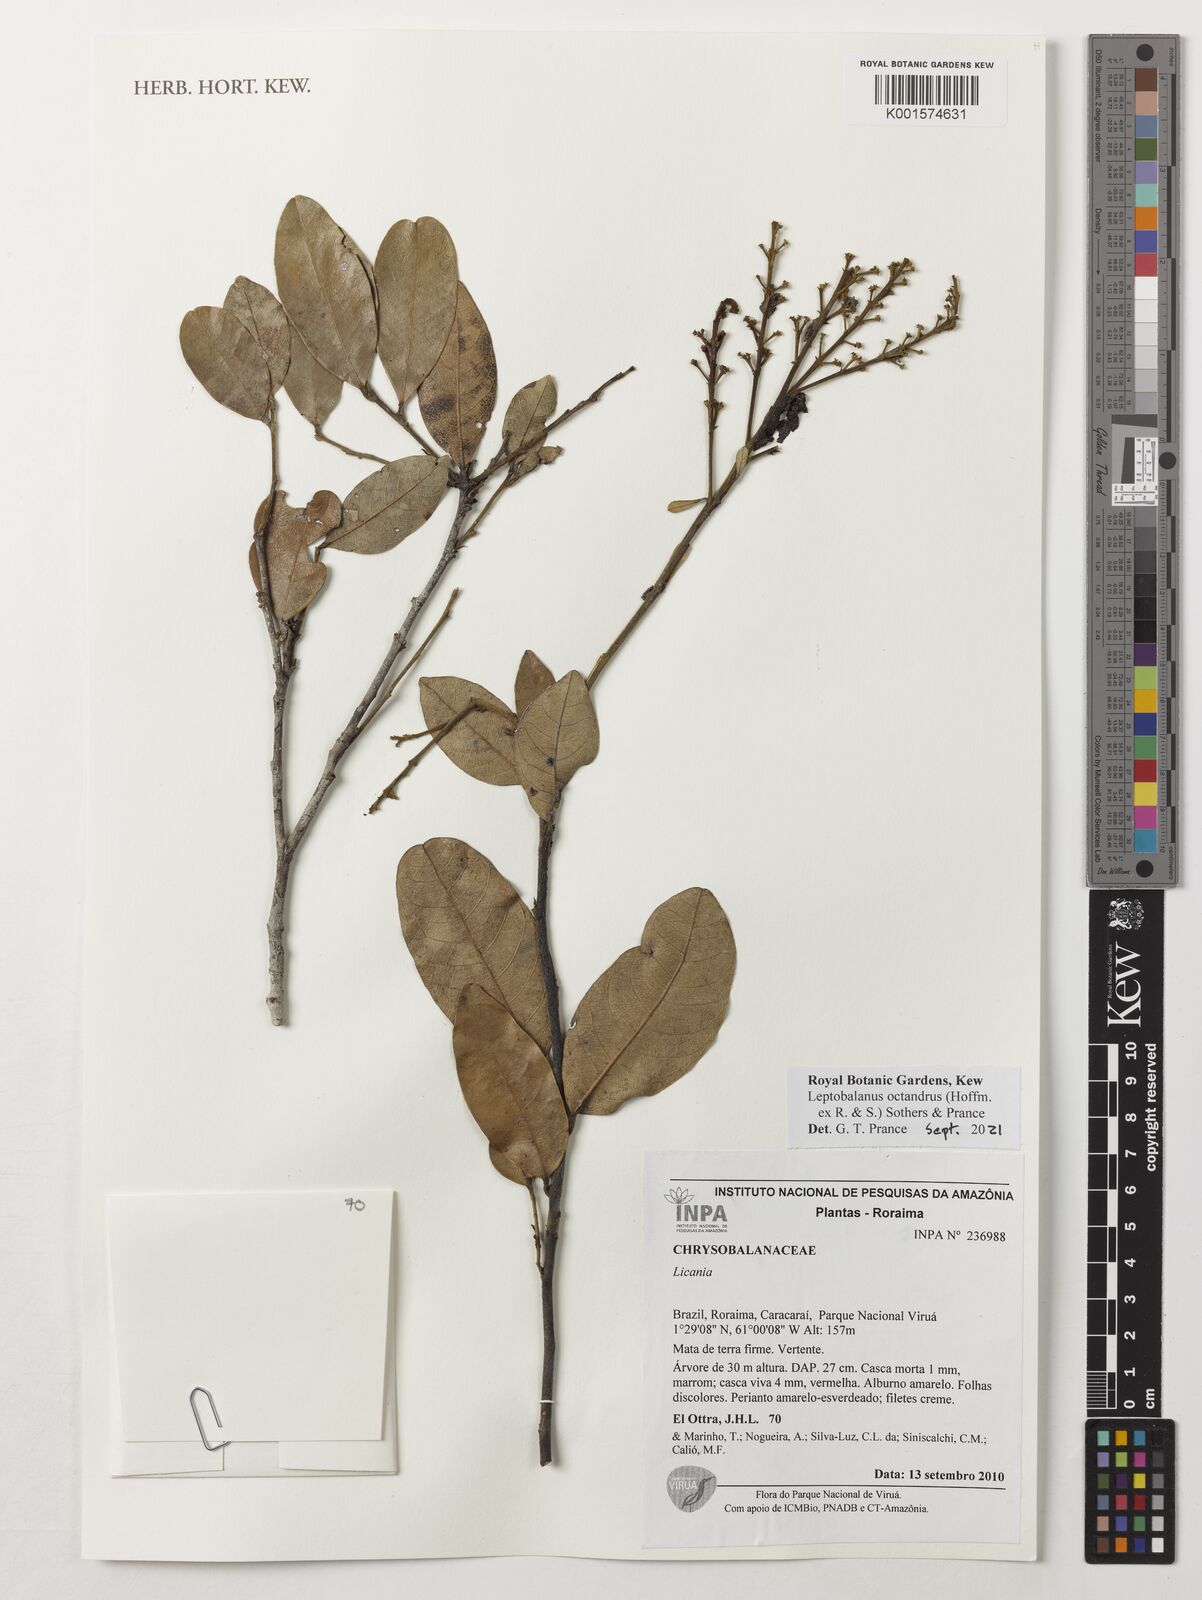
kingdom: Plantae
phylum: Tracheophyta
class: Magnoliopsida
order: Malpighiales
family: Chrysobalanaceae
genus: Leptobalanus
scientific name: Leptobalanus octandrus
